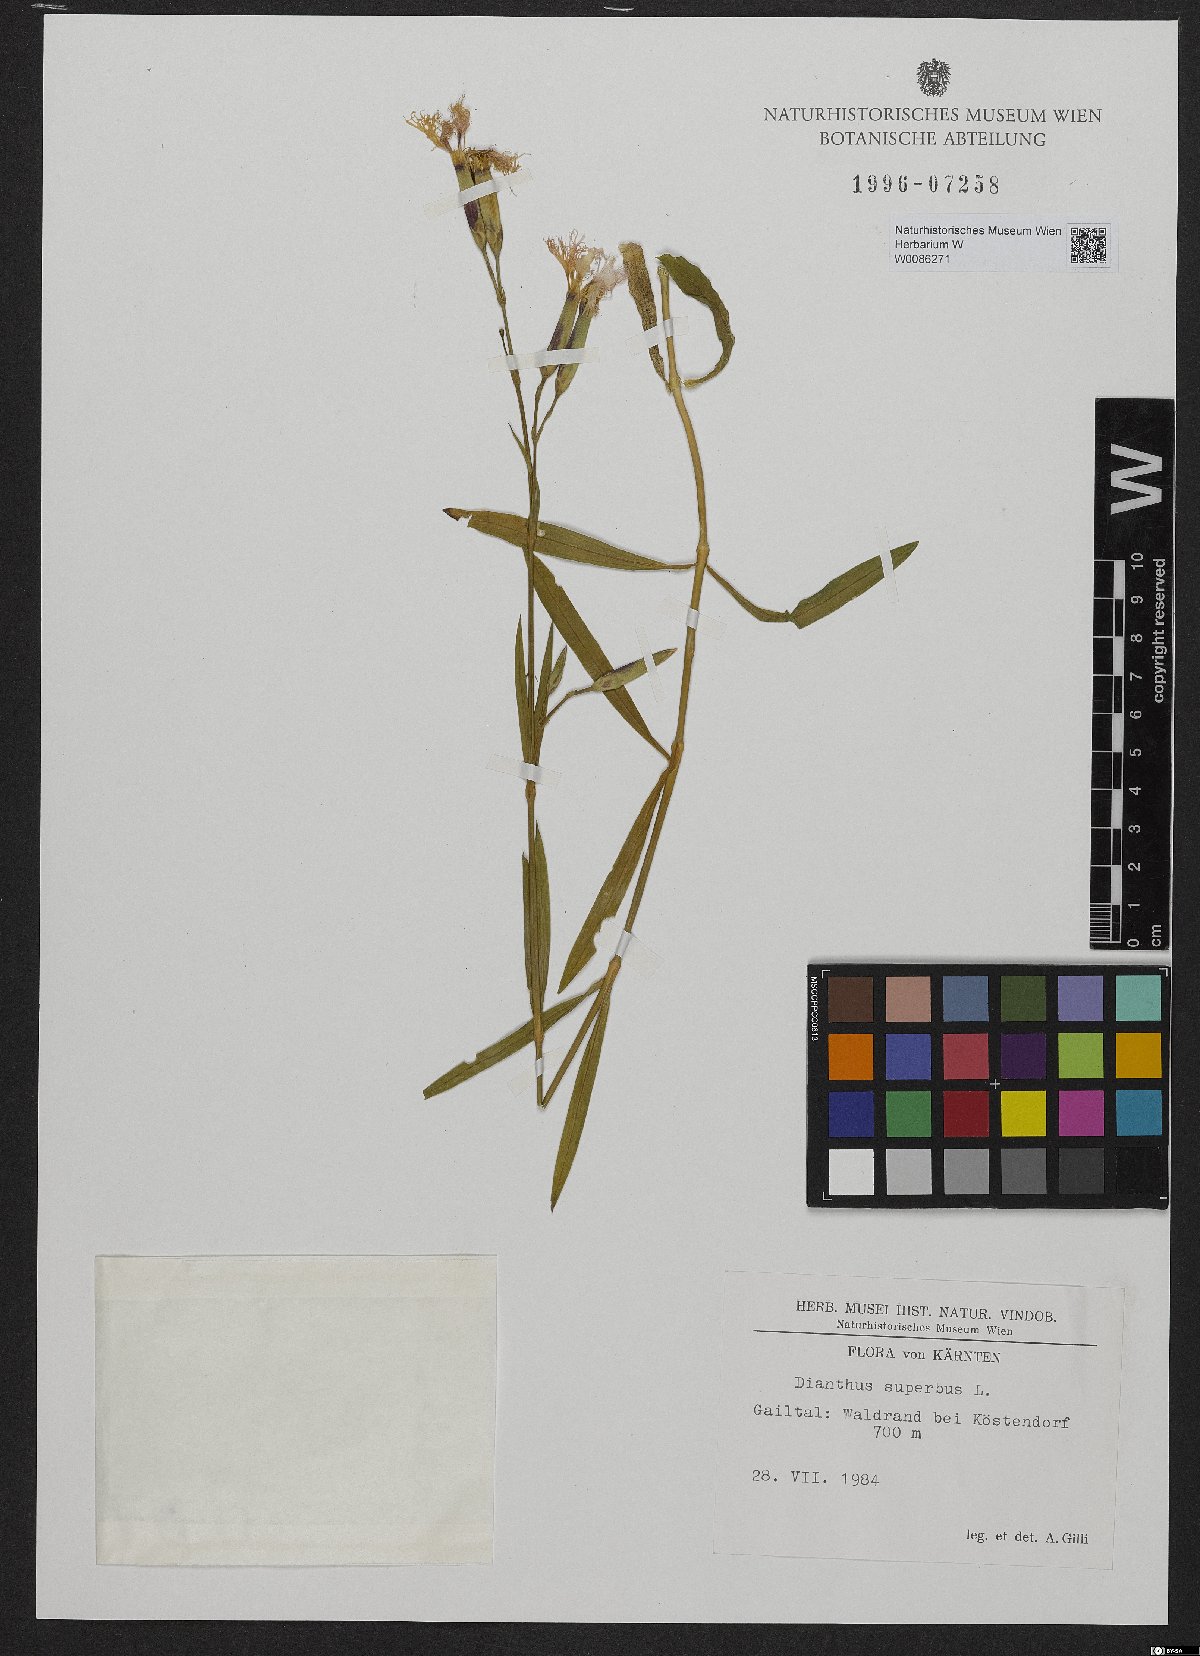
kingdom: Plantae
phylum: Tracheophyta
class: Magnoliopsida
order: Caryophyllales
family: Caryophyllaceae
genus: Dianthus
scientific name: Dianthus superbus
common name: Fringed pink
